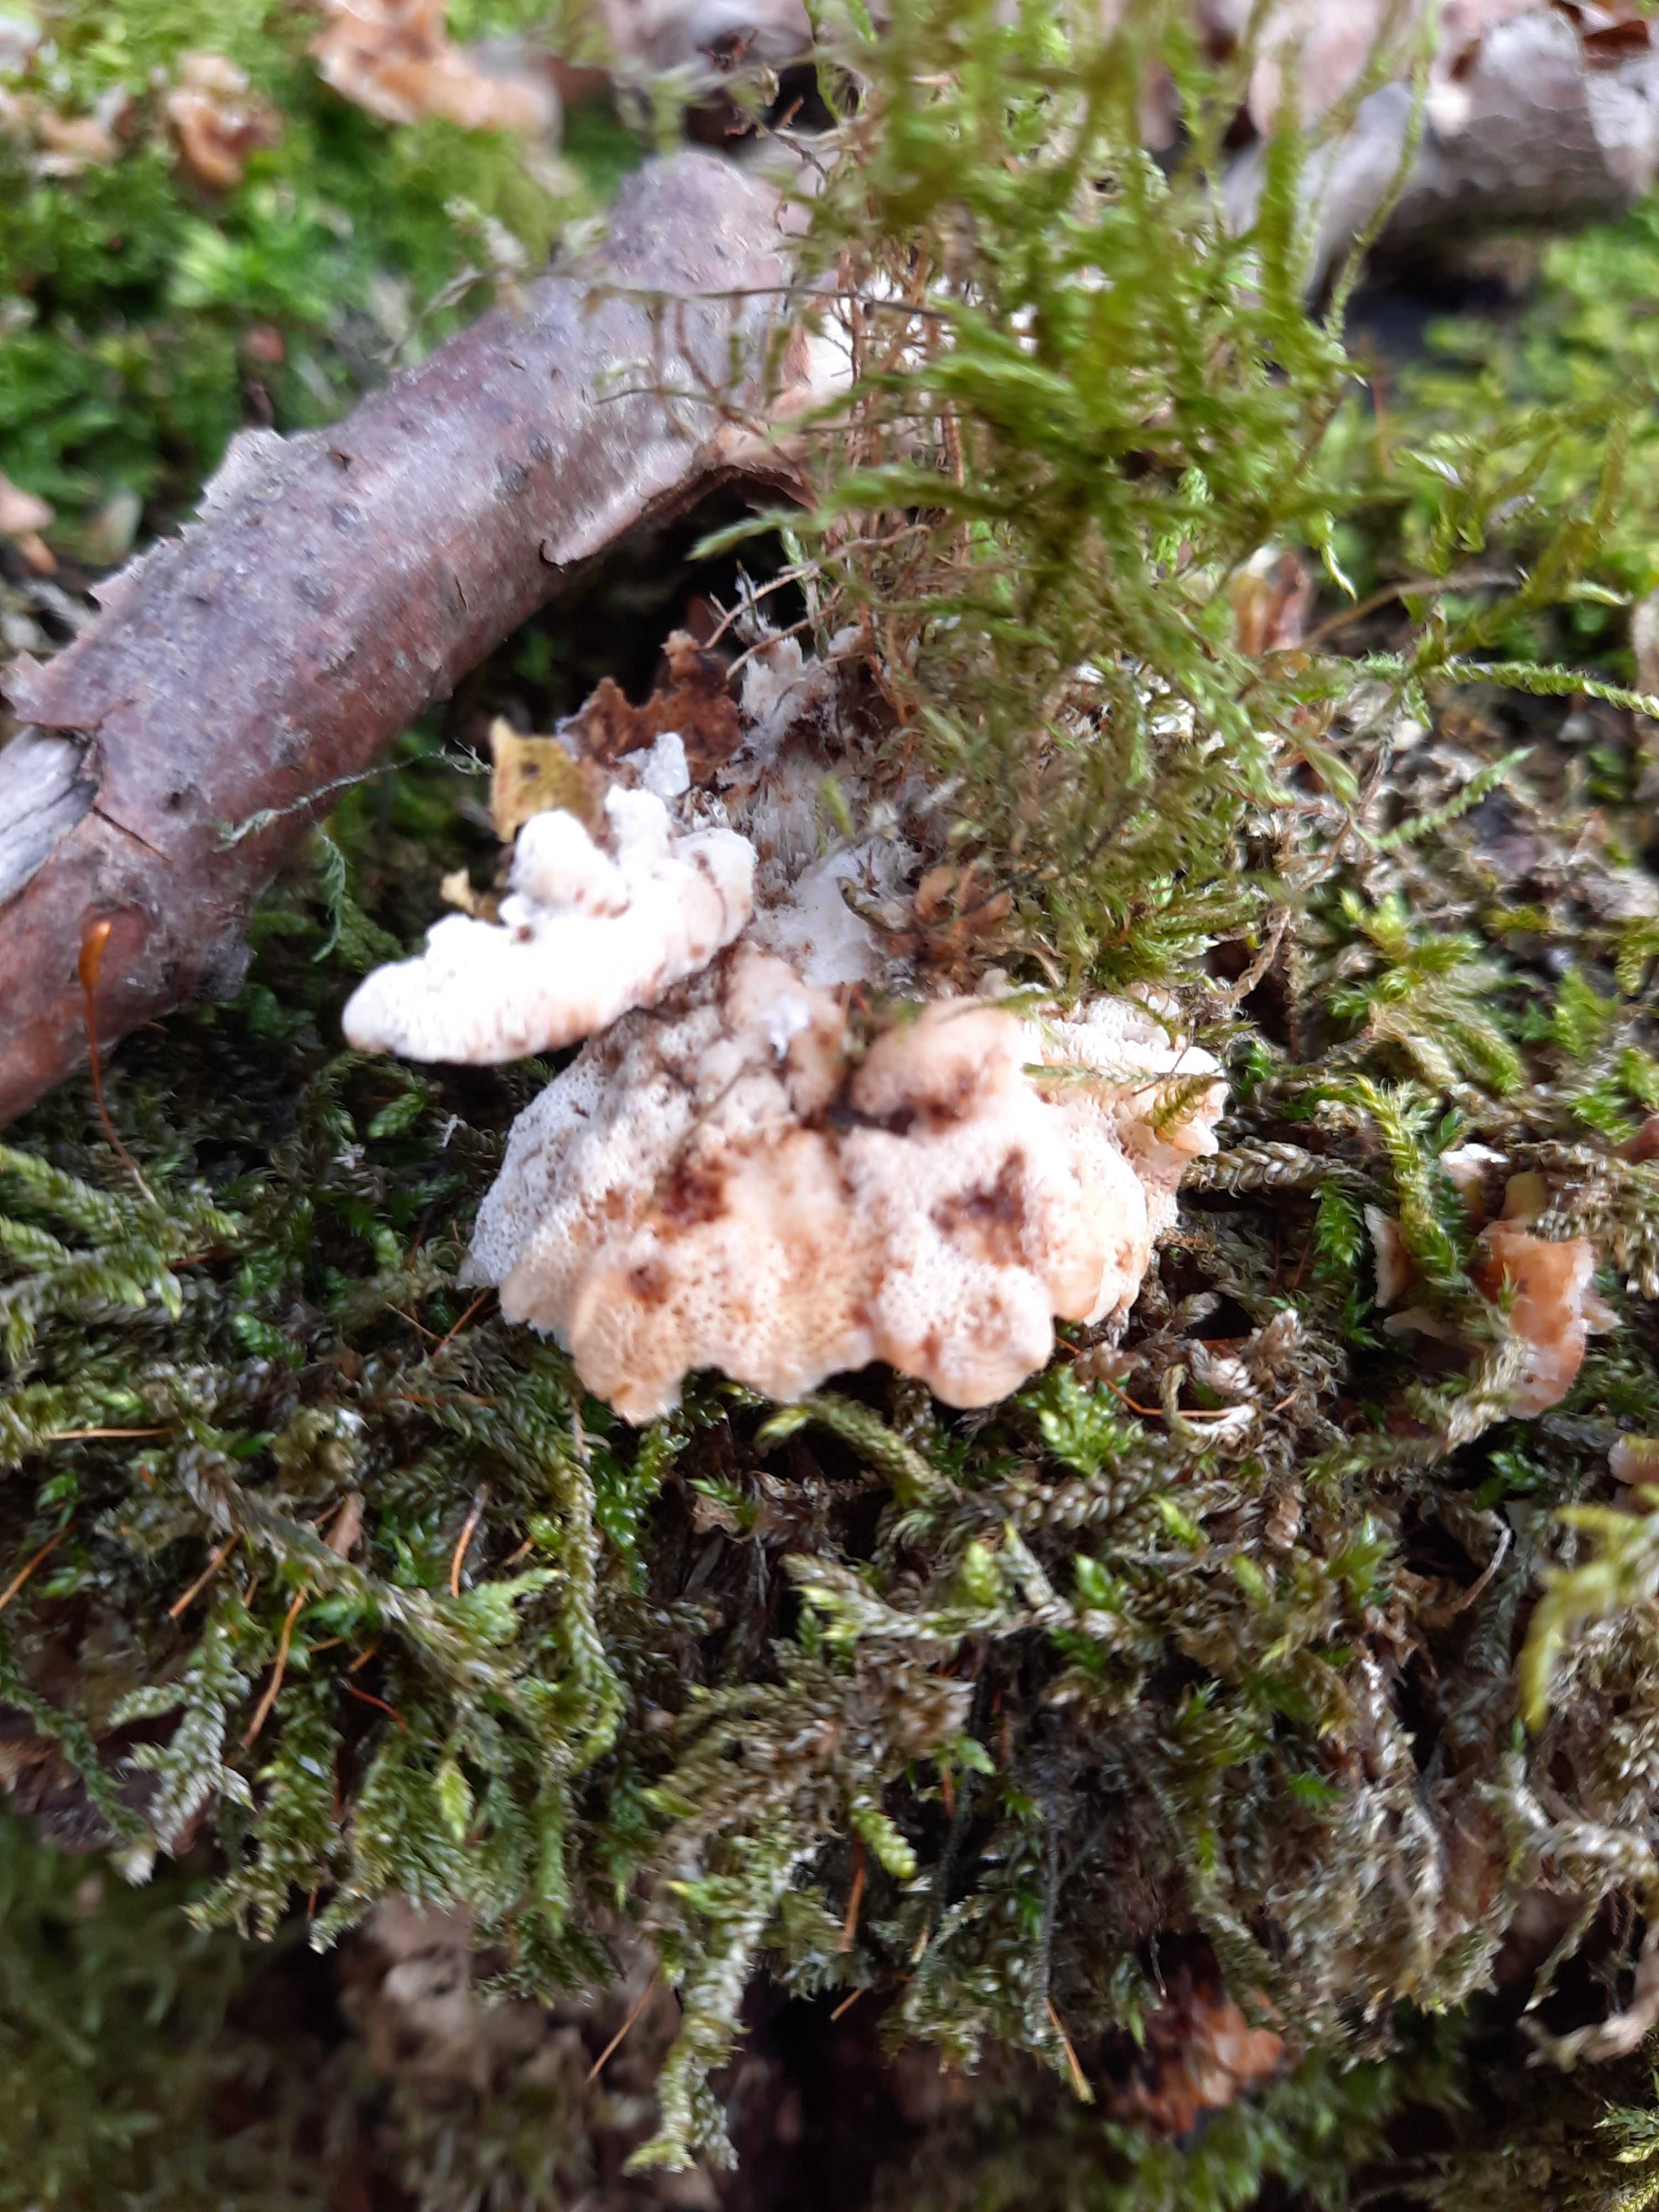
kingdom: Fungi
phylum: Basidiomycota
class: Agaricomycetes
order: Polyporales
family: Polyporaceae
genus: Trametes
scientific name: Trametes versicolor
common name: broget læderporesvamp
